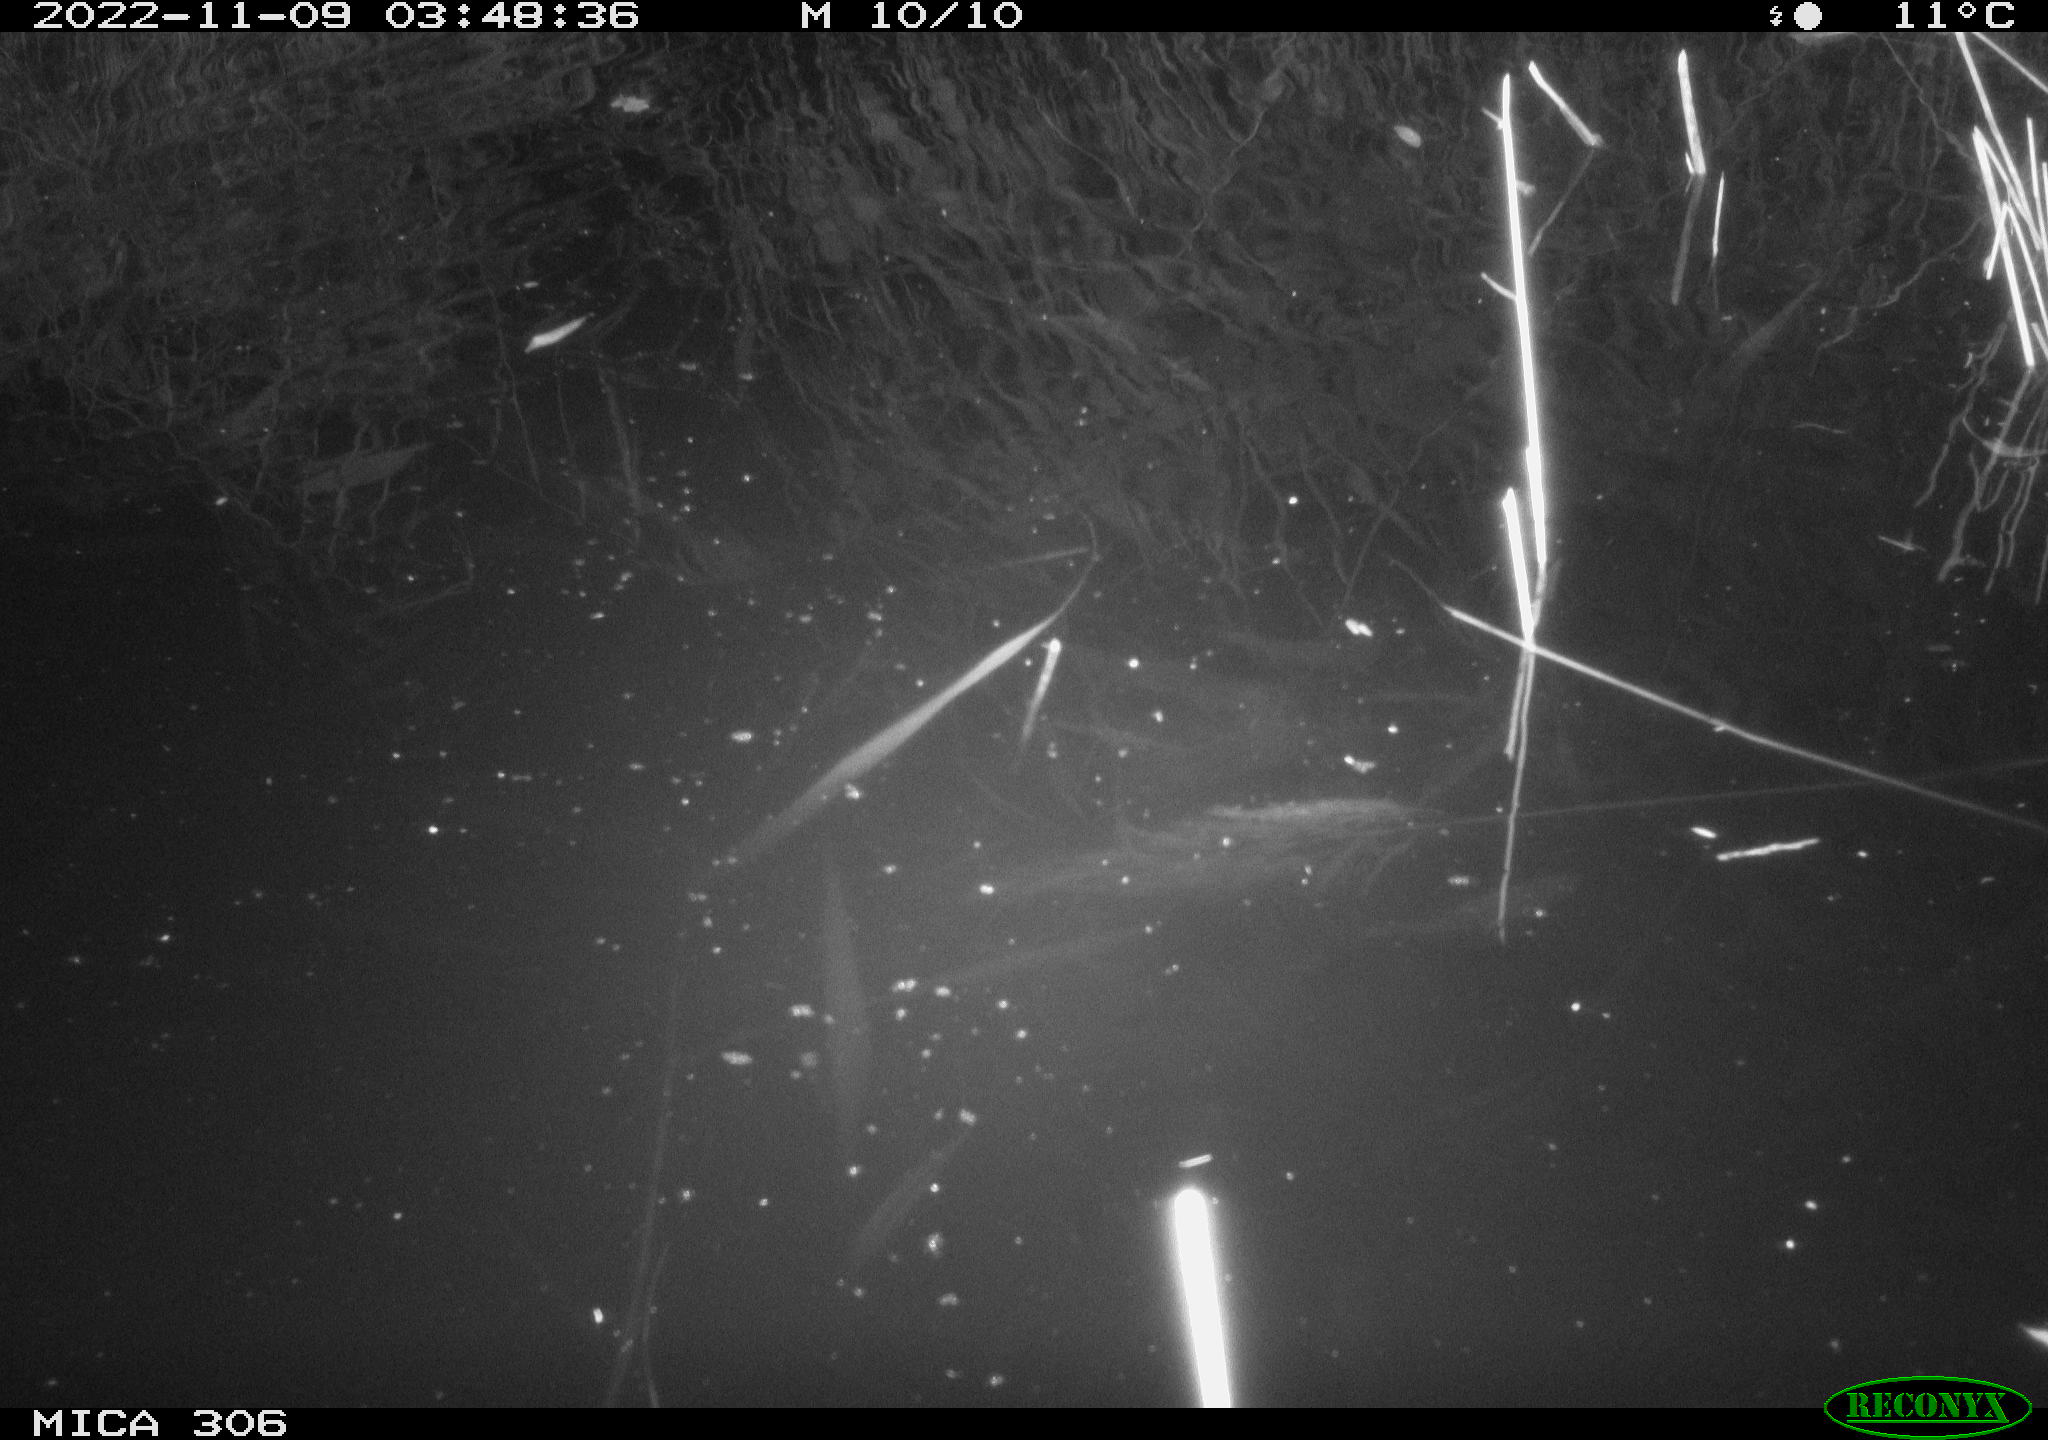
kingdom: Animalia
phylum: Chordata
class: Mammalia
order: Rodentia
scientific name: Rodentia
